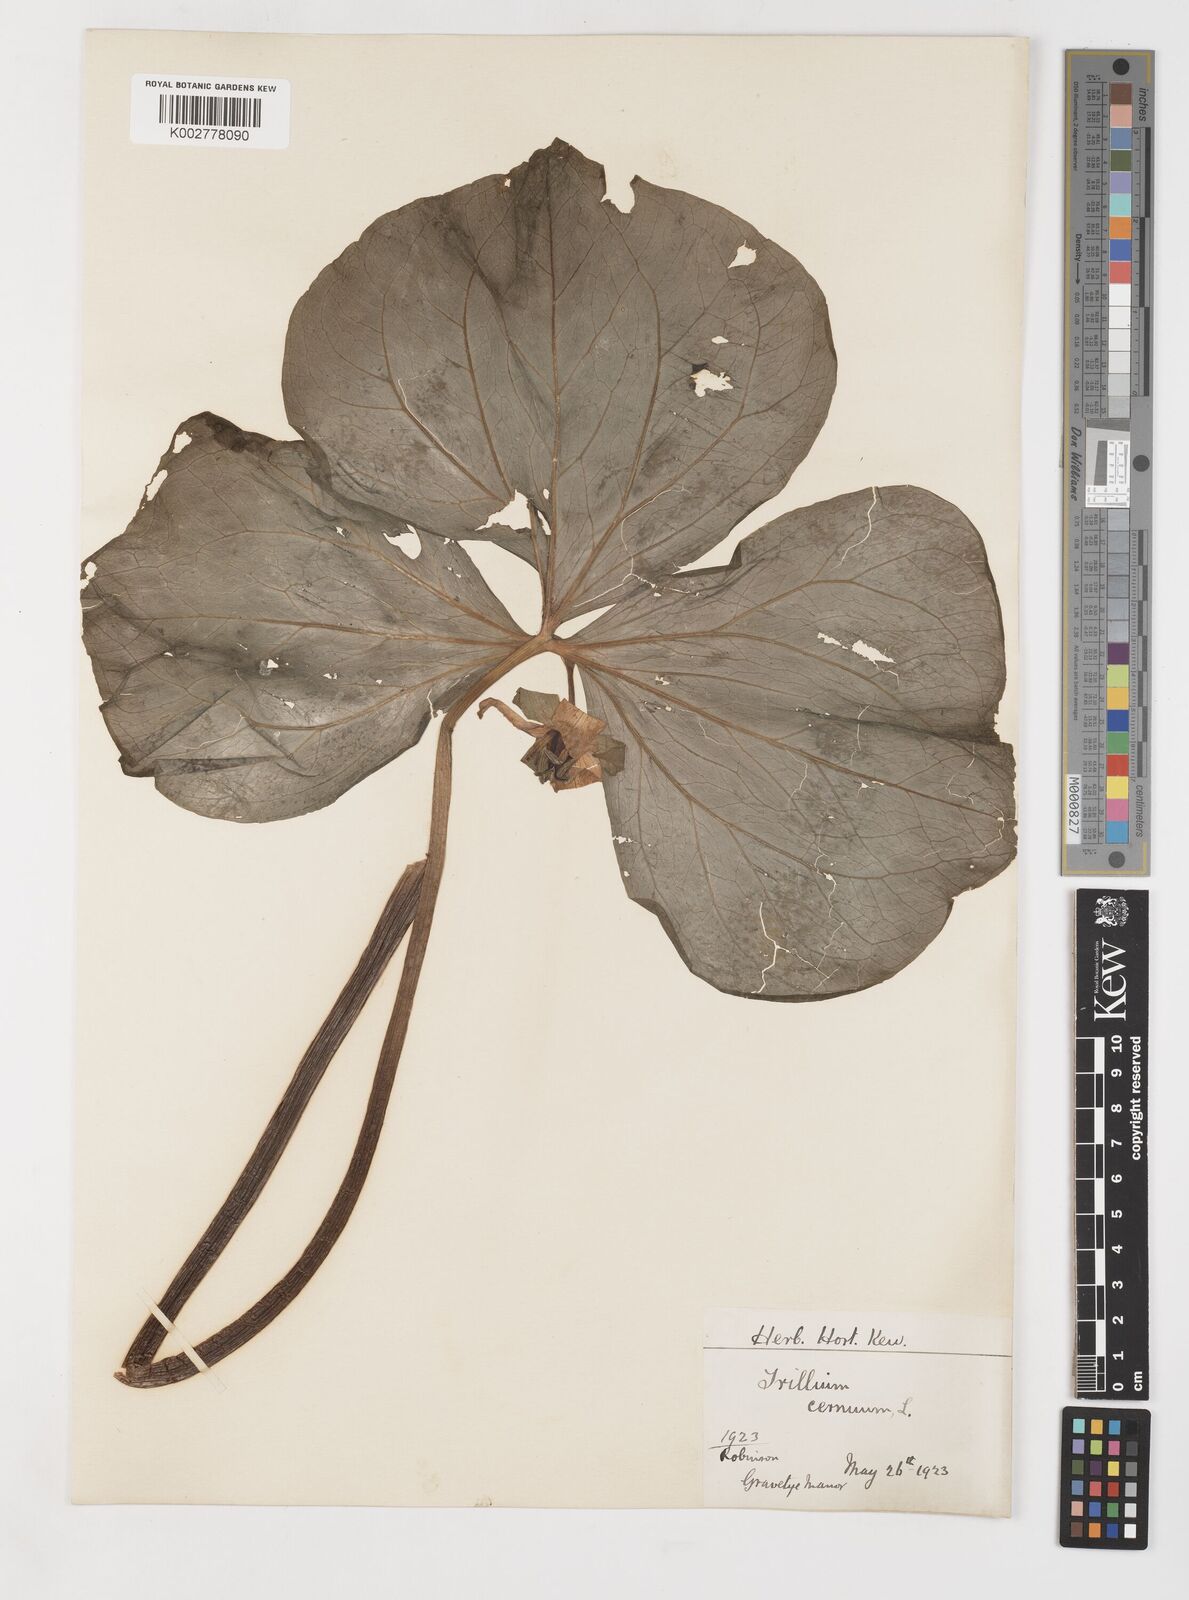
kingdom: Plantae
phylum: Tracheophyta
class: Liliopsida
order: Liliales
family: Melanthiaceae
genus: Trillium
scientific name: Trillium cernuum
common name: Nodding trillium
